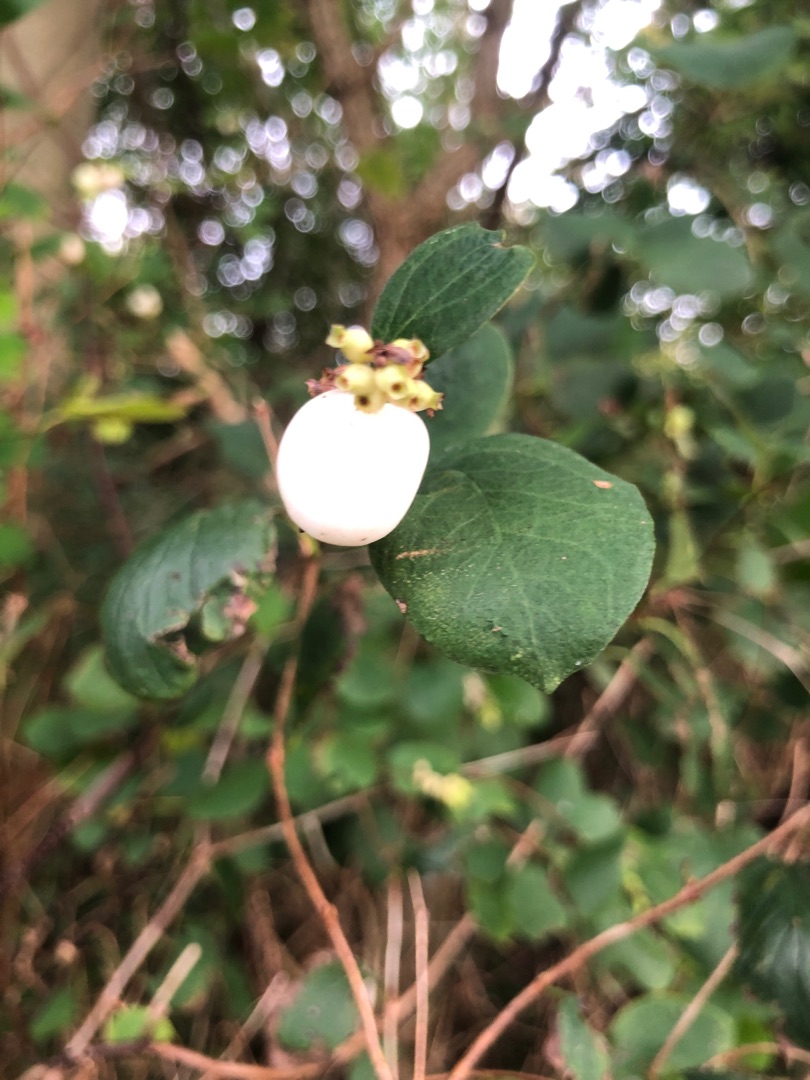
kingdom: Plantae
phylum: Tracheophyta
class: Magnoliopsida
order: Dipsacales
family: Caprifoliaceae
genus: Symphoricarpos
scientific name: Symphoricarpos albus
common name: Almindelig snebær
